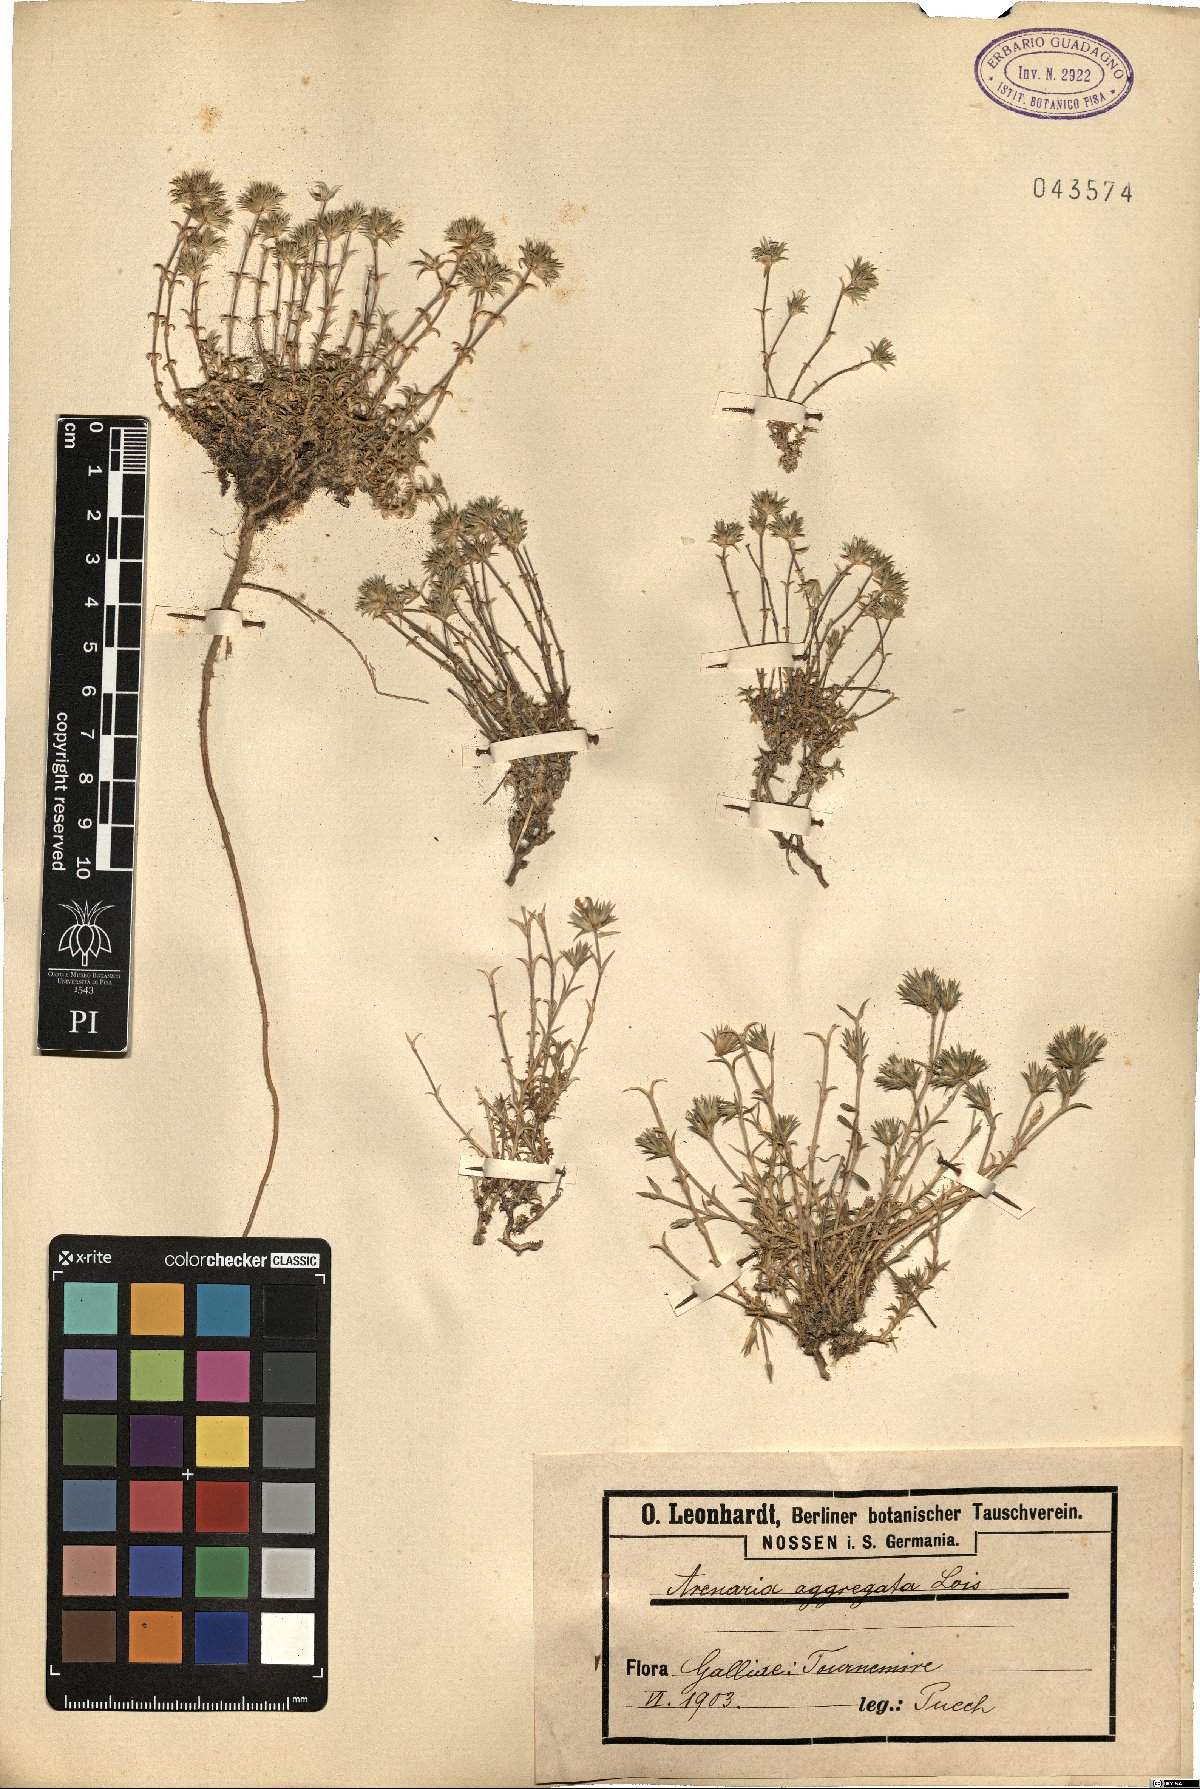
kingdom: Plantae
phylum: Tracheophyta
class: Magnoliopsida
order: Caryophyllales
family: Caryophyllaceae
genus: Arenaria
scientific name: Arenaria aggregata
